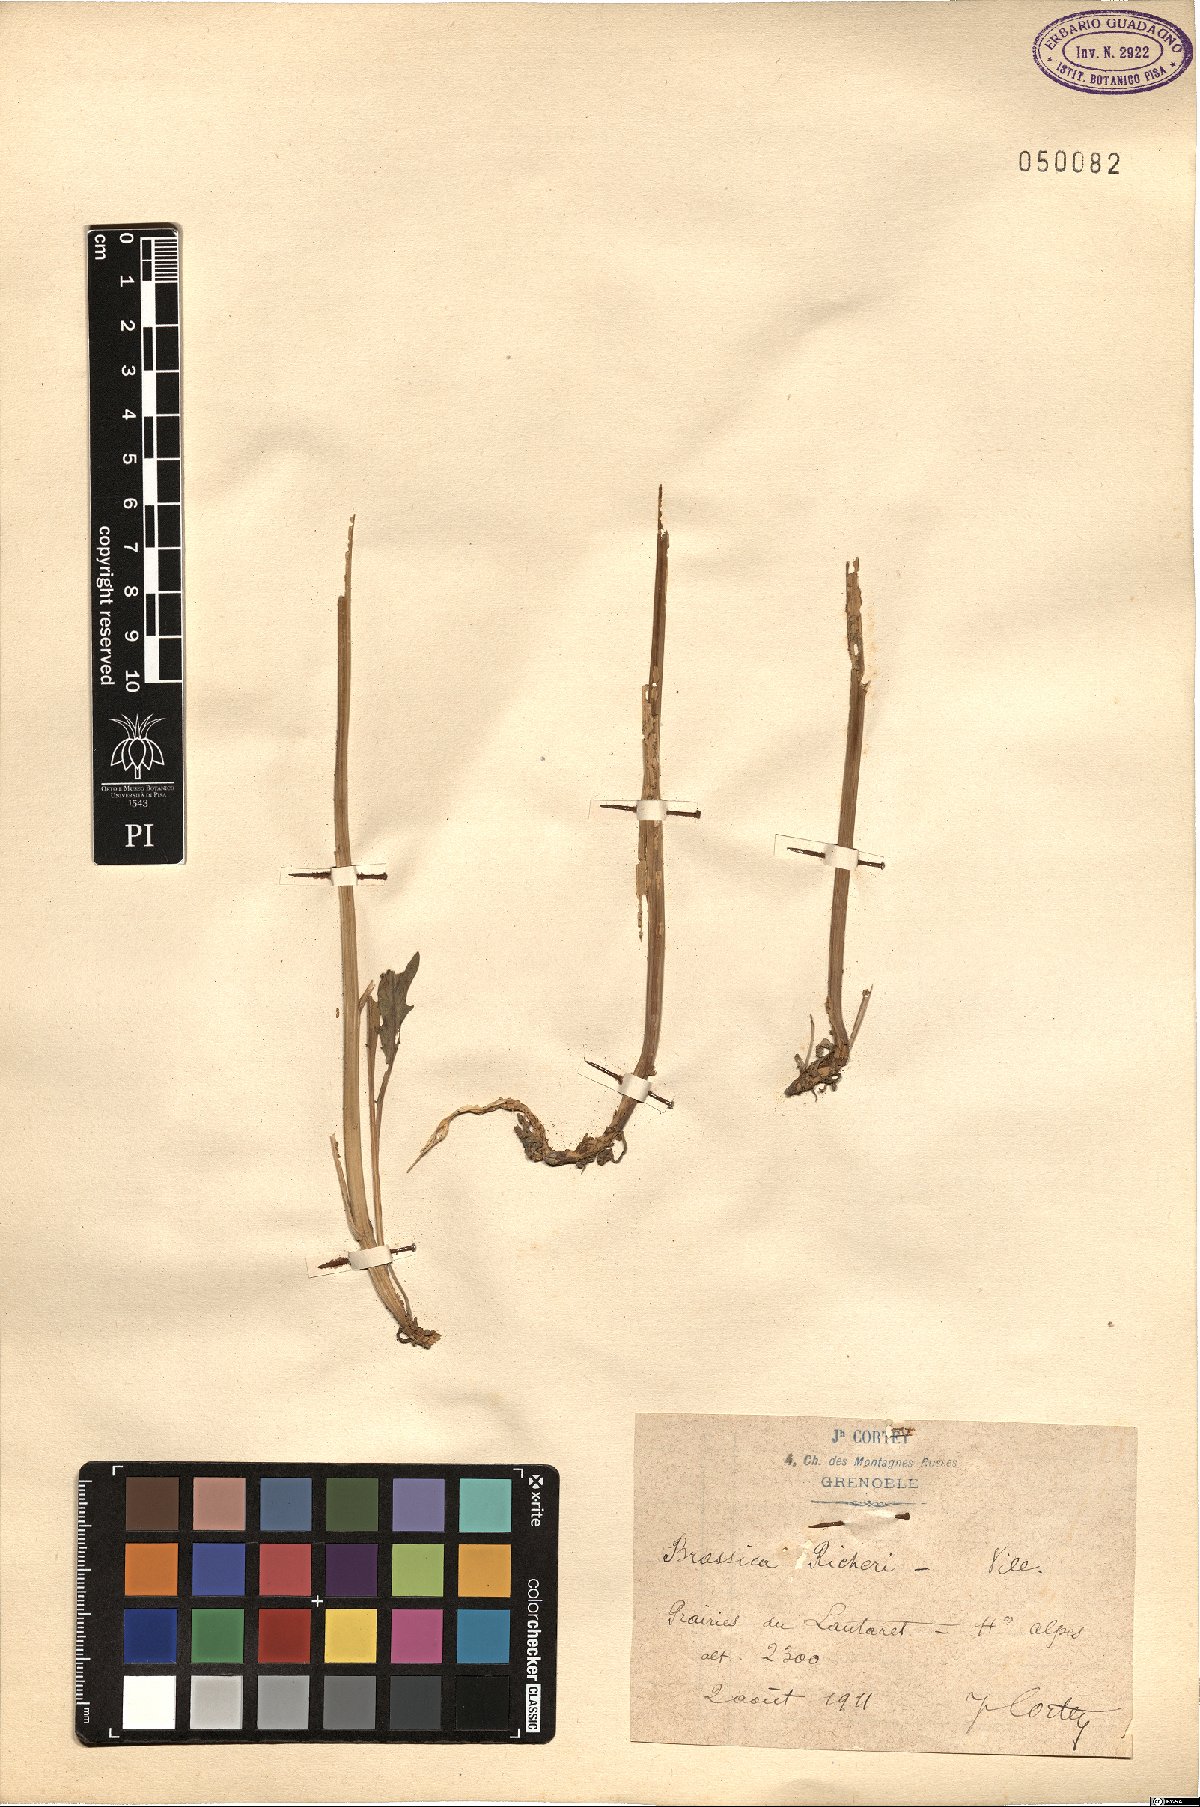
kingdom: Plantae
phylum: Tracheophyta
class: Magnoliopsida
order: Brassicales
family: Brassicaceae
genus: Coincya
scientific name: Coincya richeri
